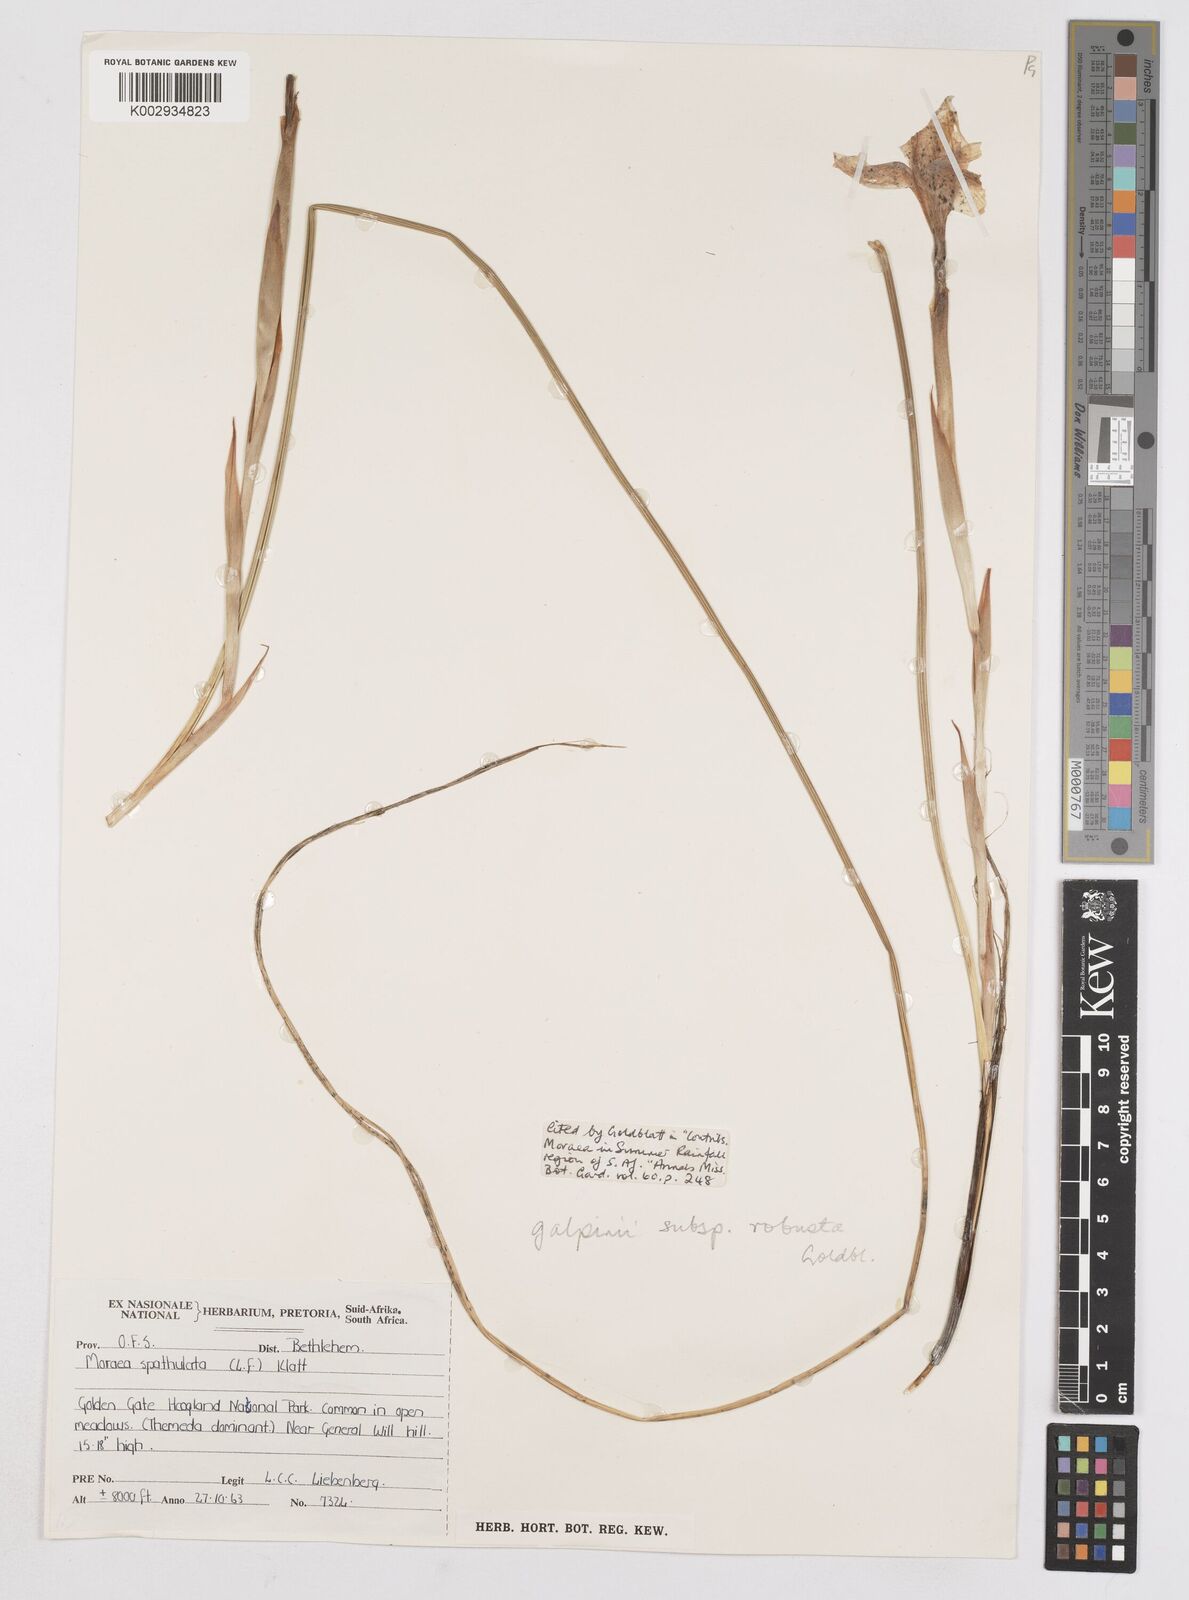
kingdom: Plantae
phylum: Tracheophyta
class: Liliopsida
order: Asparagales
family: Iridaceae
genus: Moraea
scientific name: Moraea robusta
